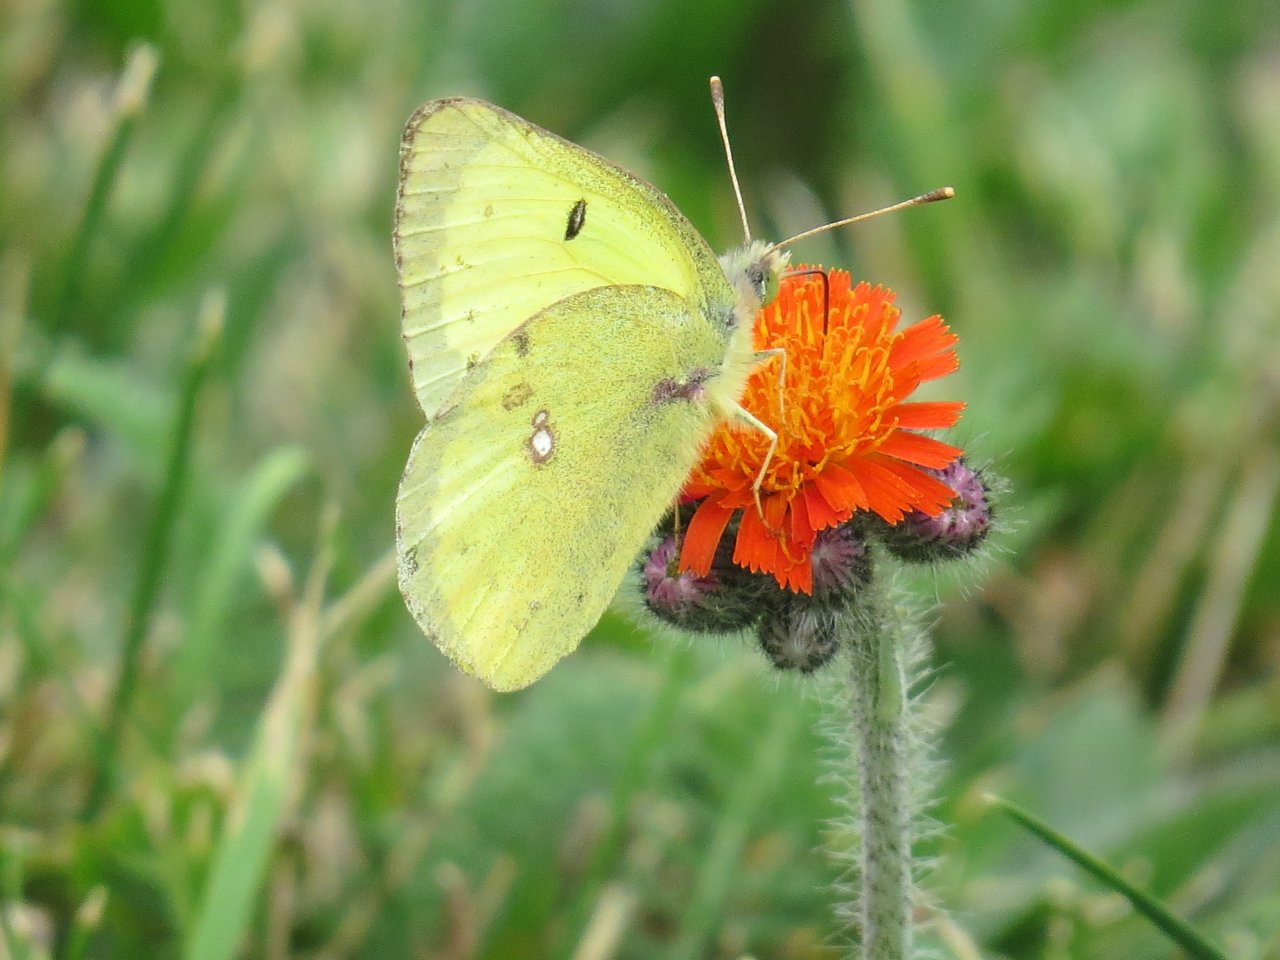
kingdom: Animalia
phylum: Arthropoda
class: Insecta
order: Lepidoptera
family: Pieridae
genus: Colias
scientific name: Colias philodice
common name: Clouded Sulphur
